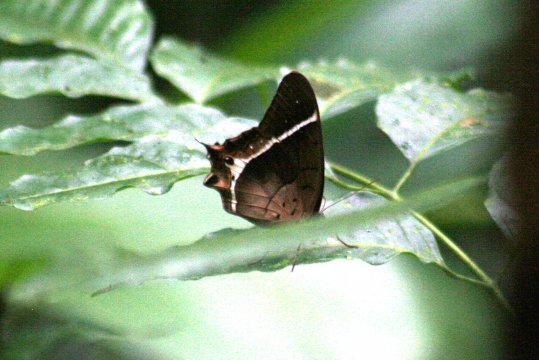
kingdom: Animalia
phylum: Arthropoda
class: Insecta
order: Lepidoptera
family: Nymphalidae
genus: Antirrhea
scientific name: Antirrhea philoctetes
